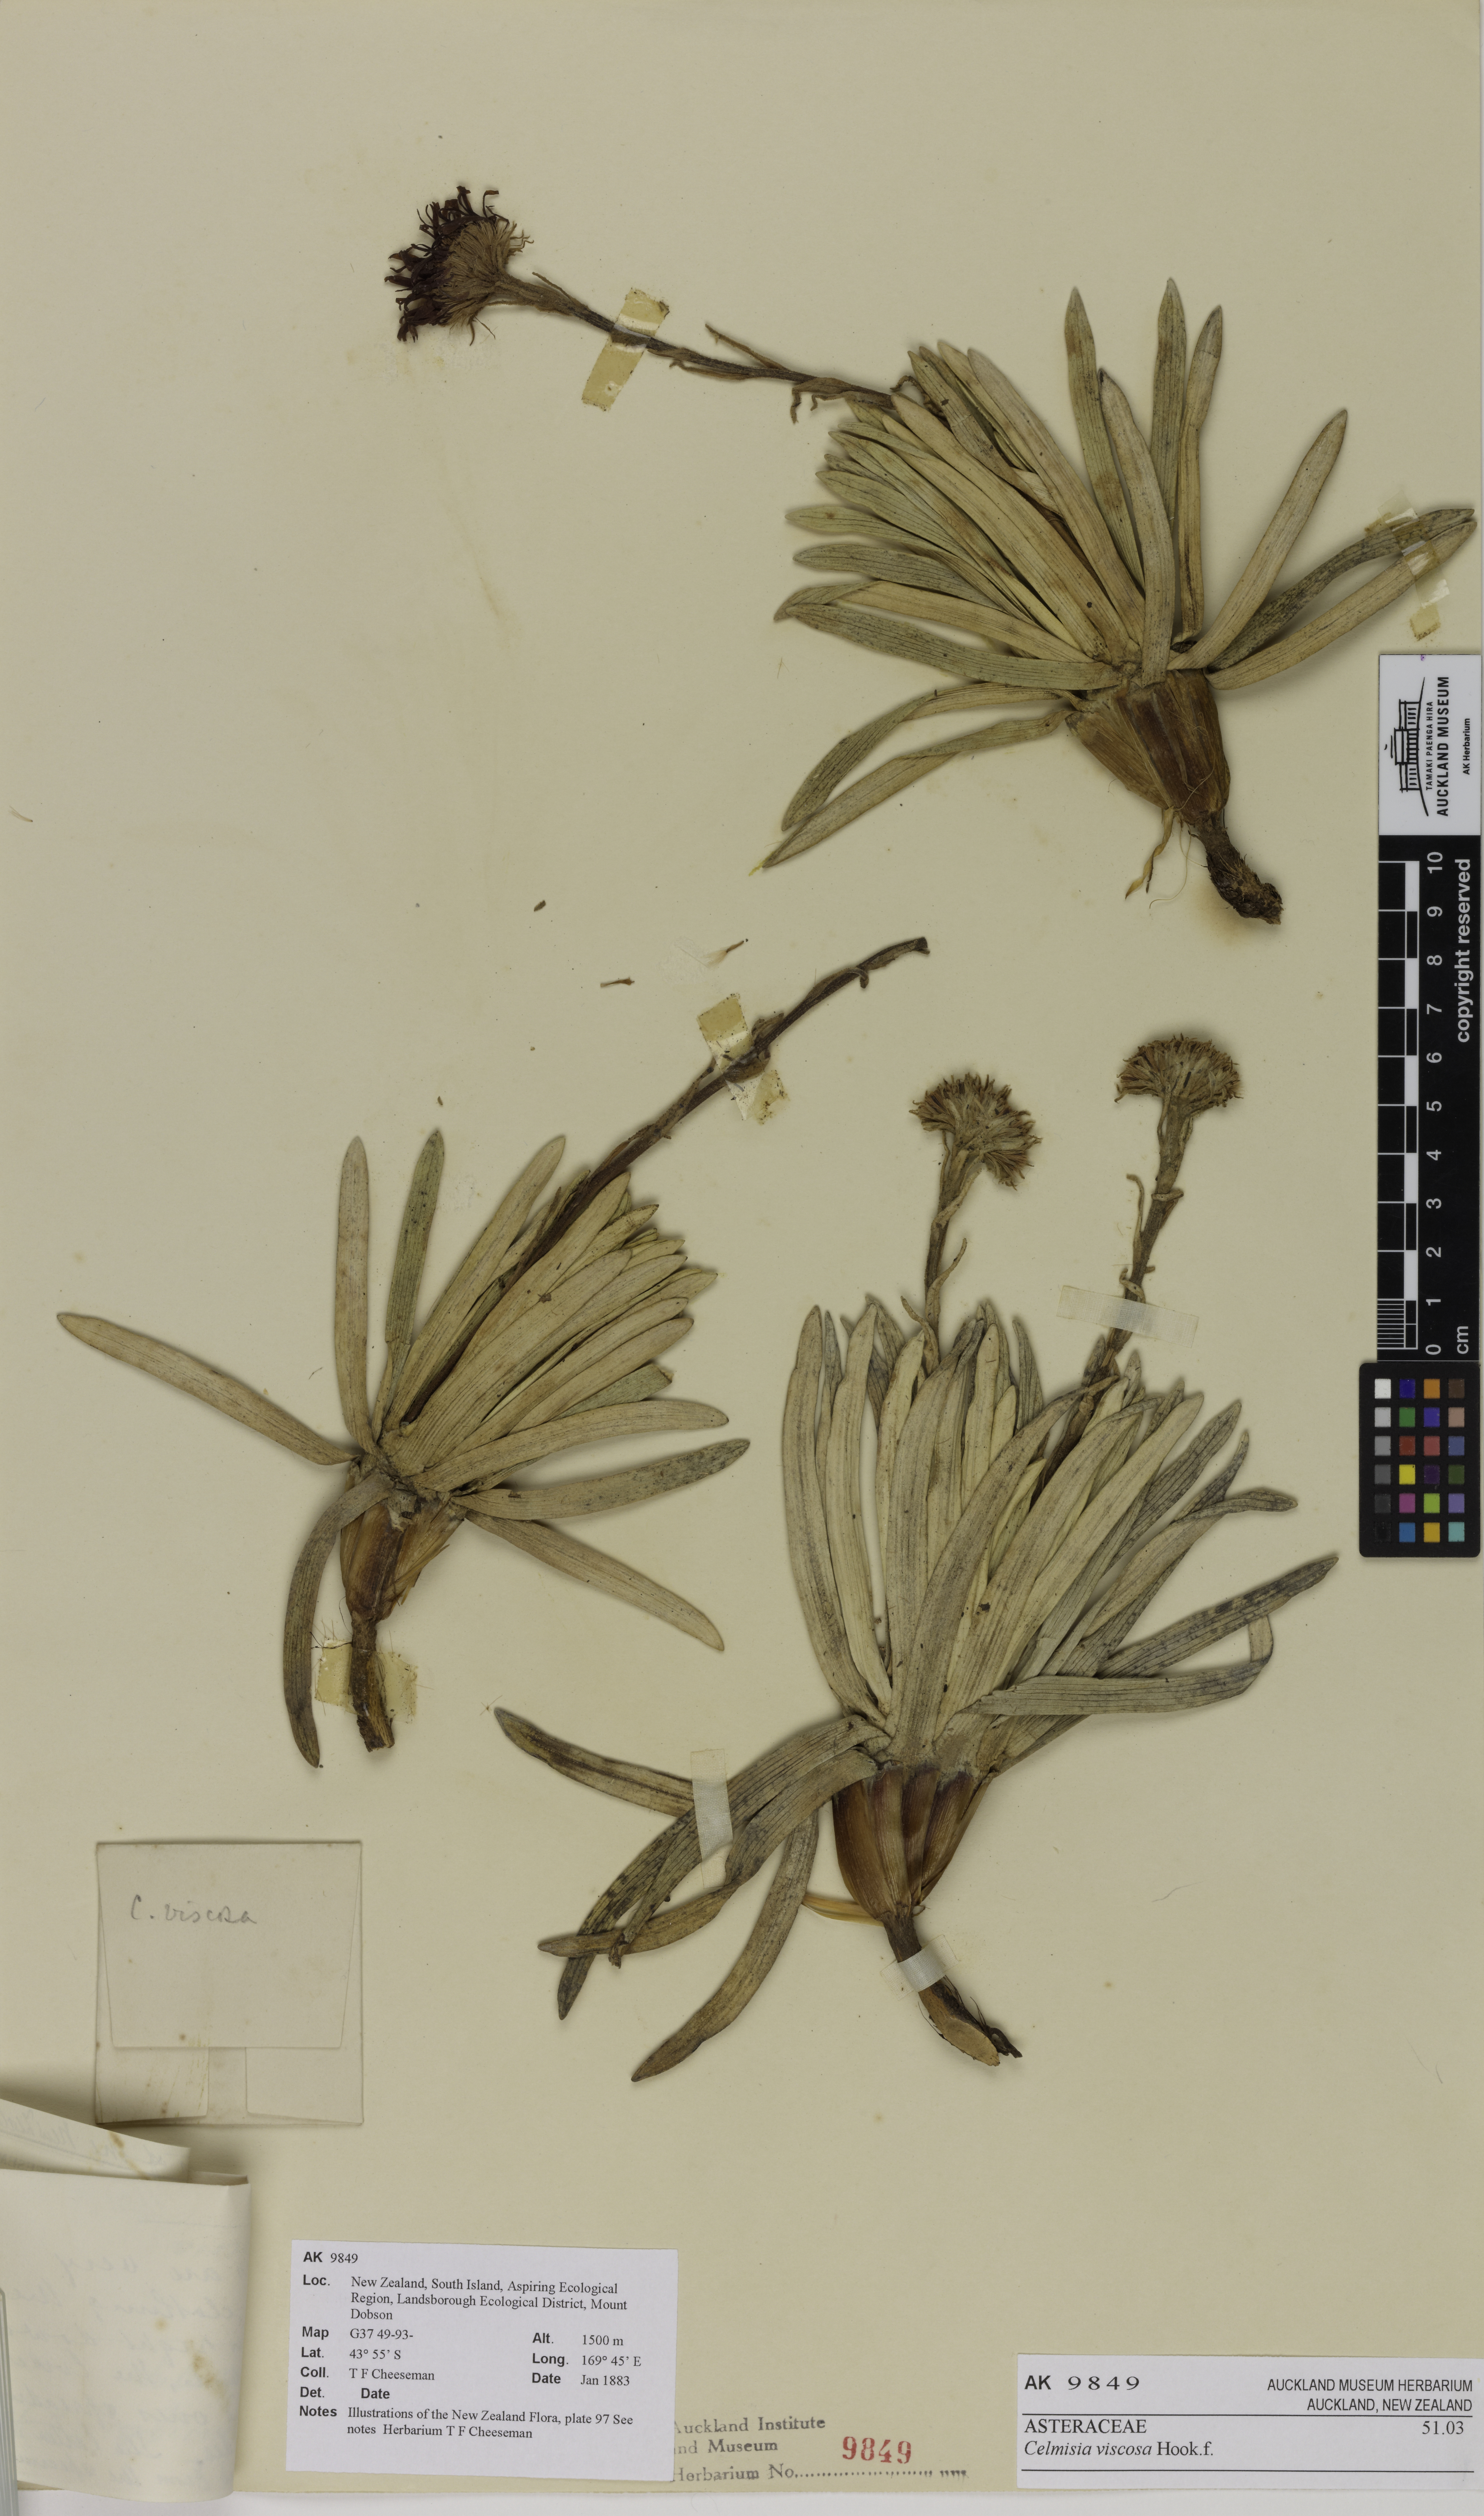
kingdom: Plantae
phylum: Tracheophyta
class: Magnoliopsida
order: Asterales
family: Asteraceae
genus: Celmisia
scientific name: Celmisia viscosa
